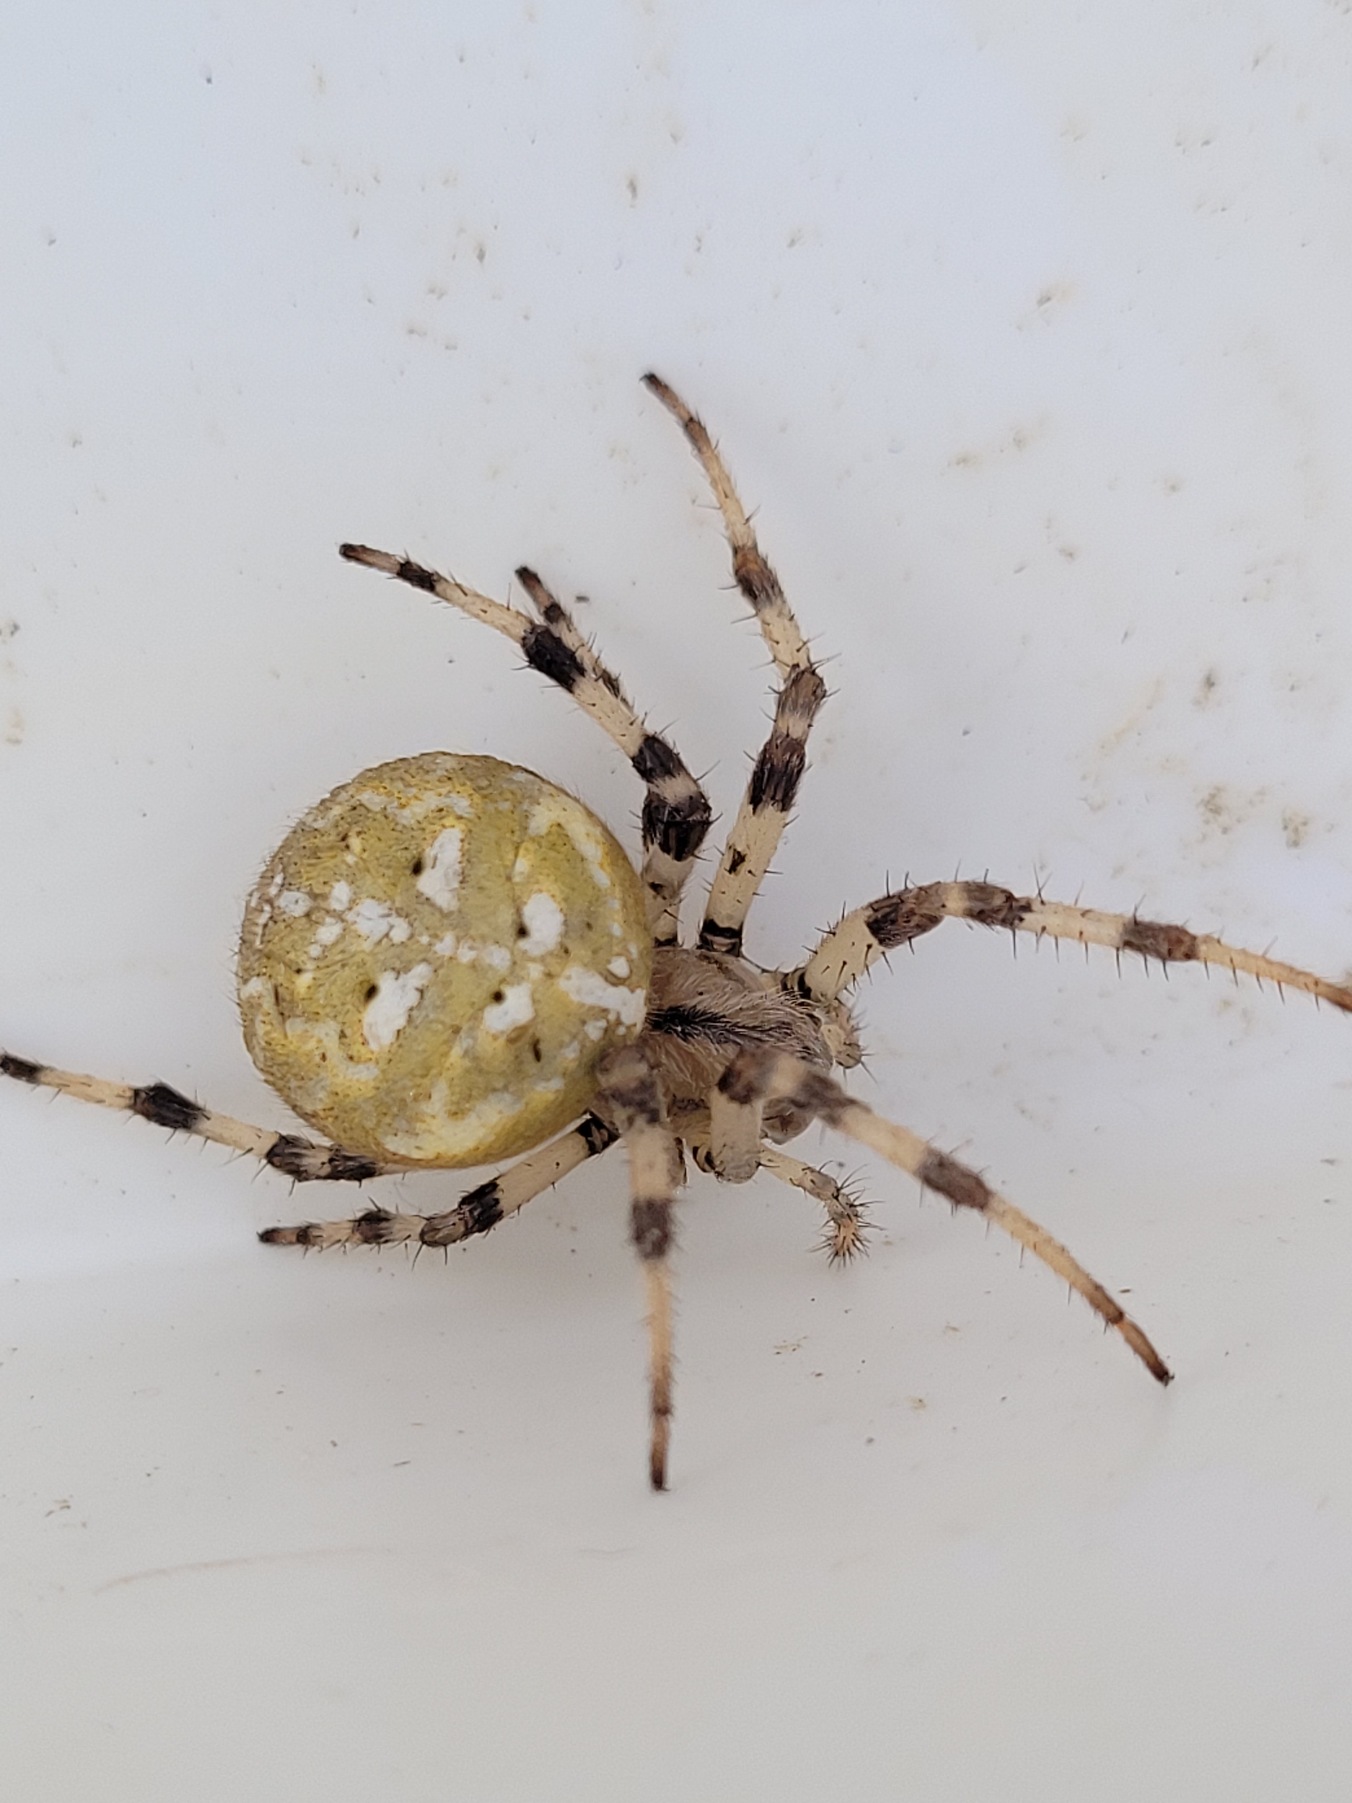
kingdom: Animalia
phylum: Arthropoda
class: Arachnida
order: Araneae
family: Araneidae
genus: Araneus
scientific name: Araneus quadratus
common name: Kvadratedderkop
